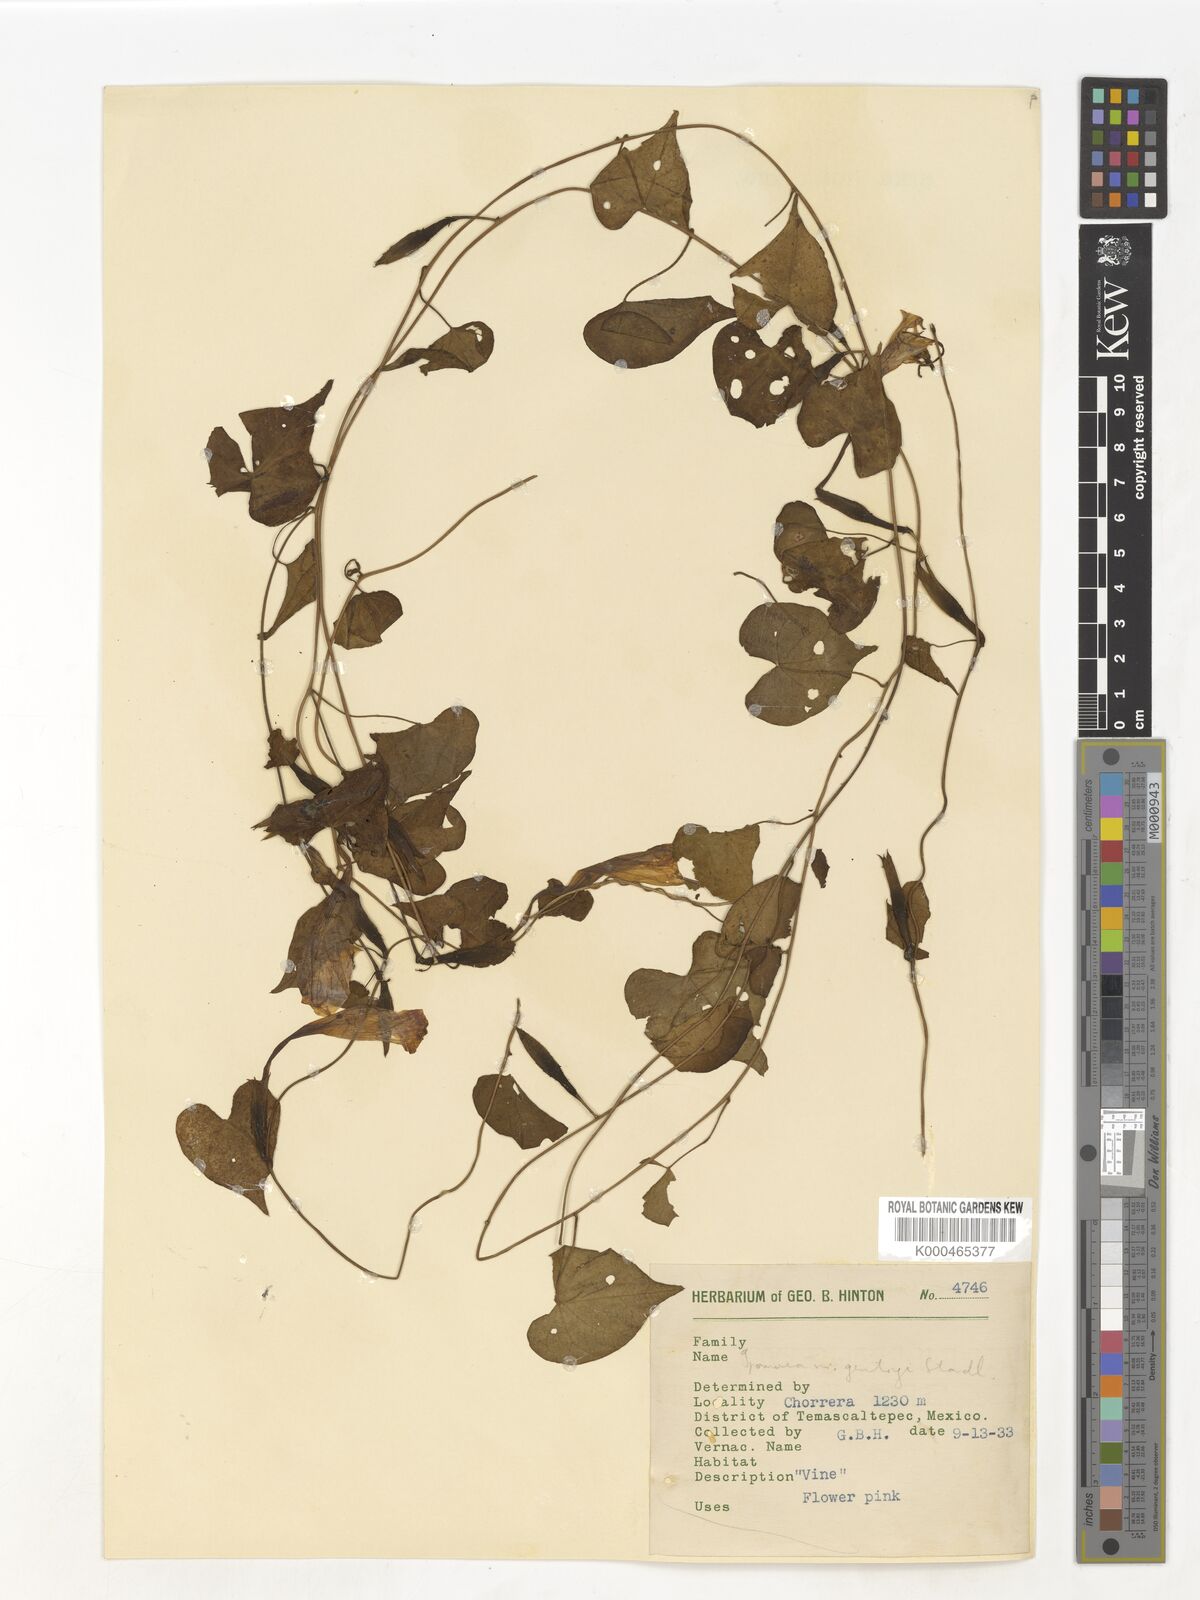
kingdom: Plantae
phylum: Tracheophyta
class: Magnoliopsida
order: Solanales
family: Convolvulaceae
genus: Ipomoea
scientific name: Ipomoea
